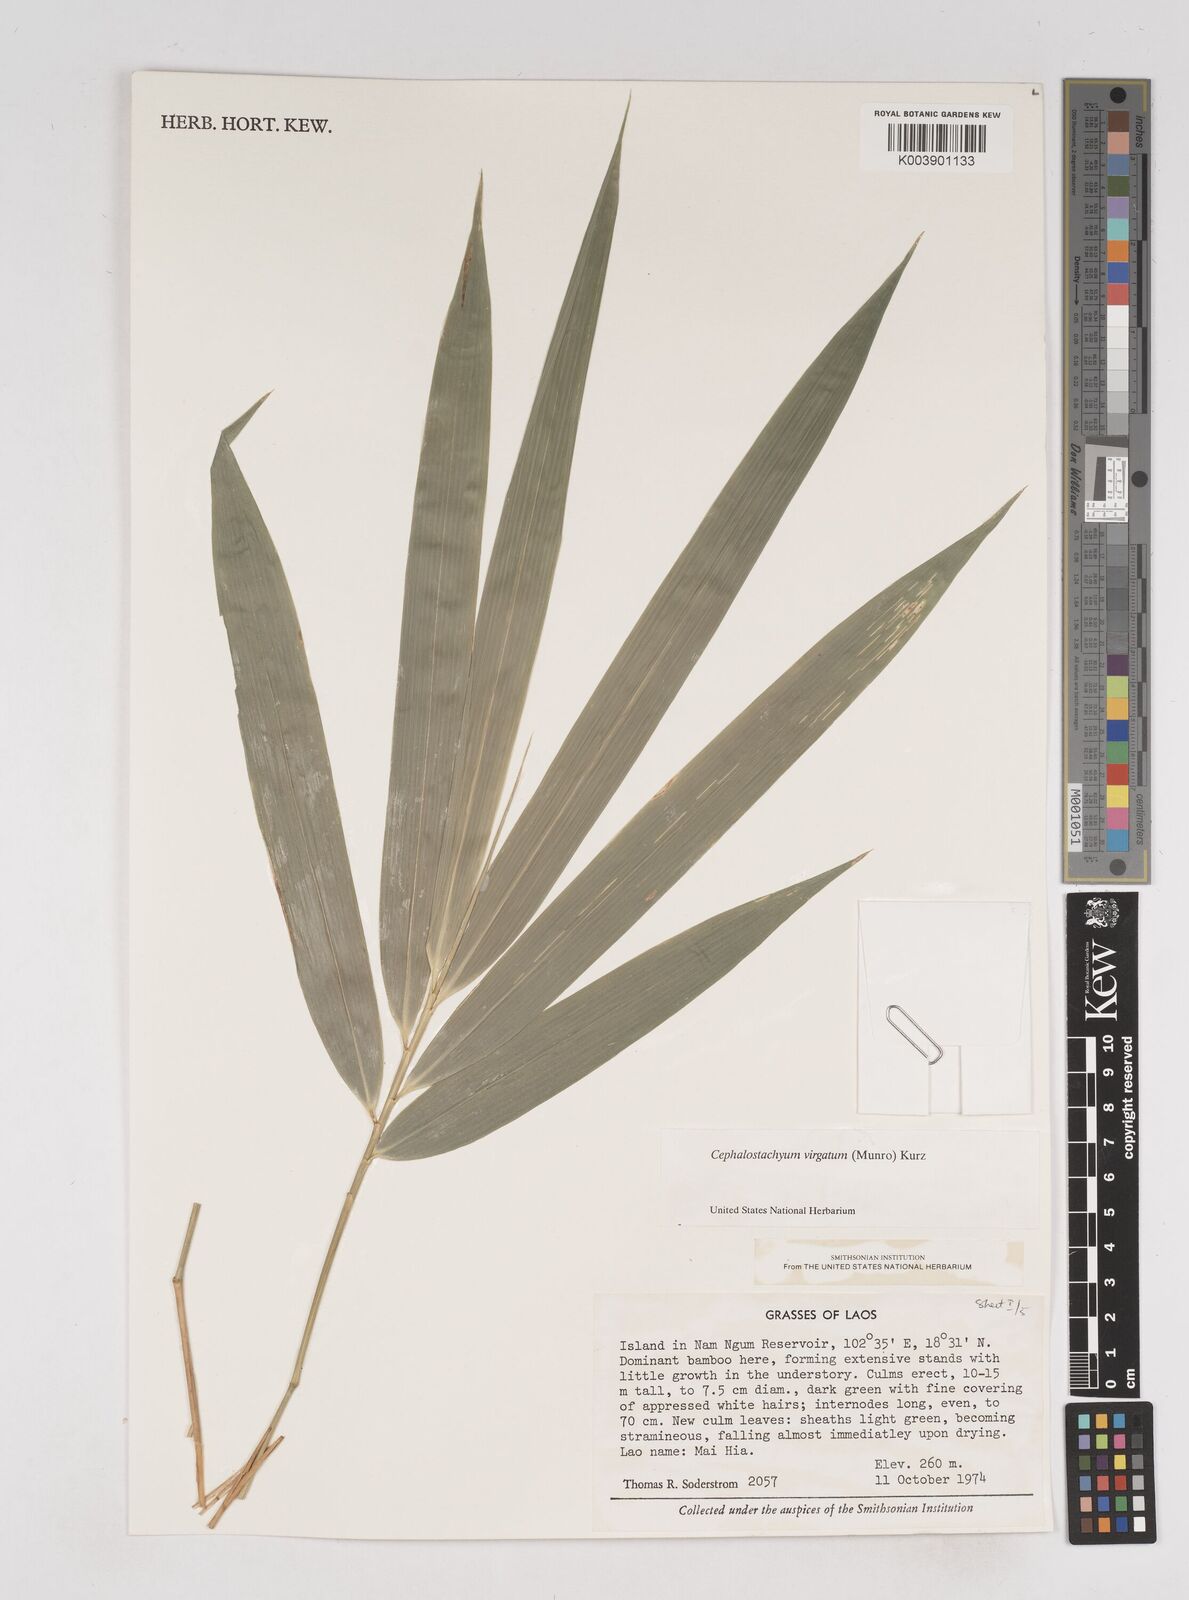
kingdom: Plantae
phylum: Tracheophyta
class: Liliopsida
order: Poales
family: Poaceae
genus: Schizostachyum
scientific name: Schizostachyum virgatum
